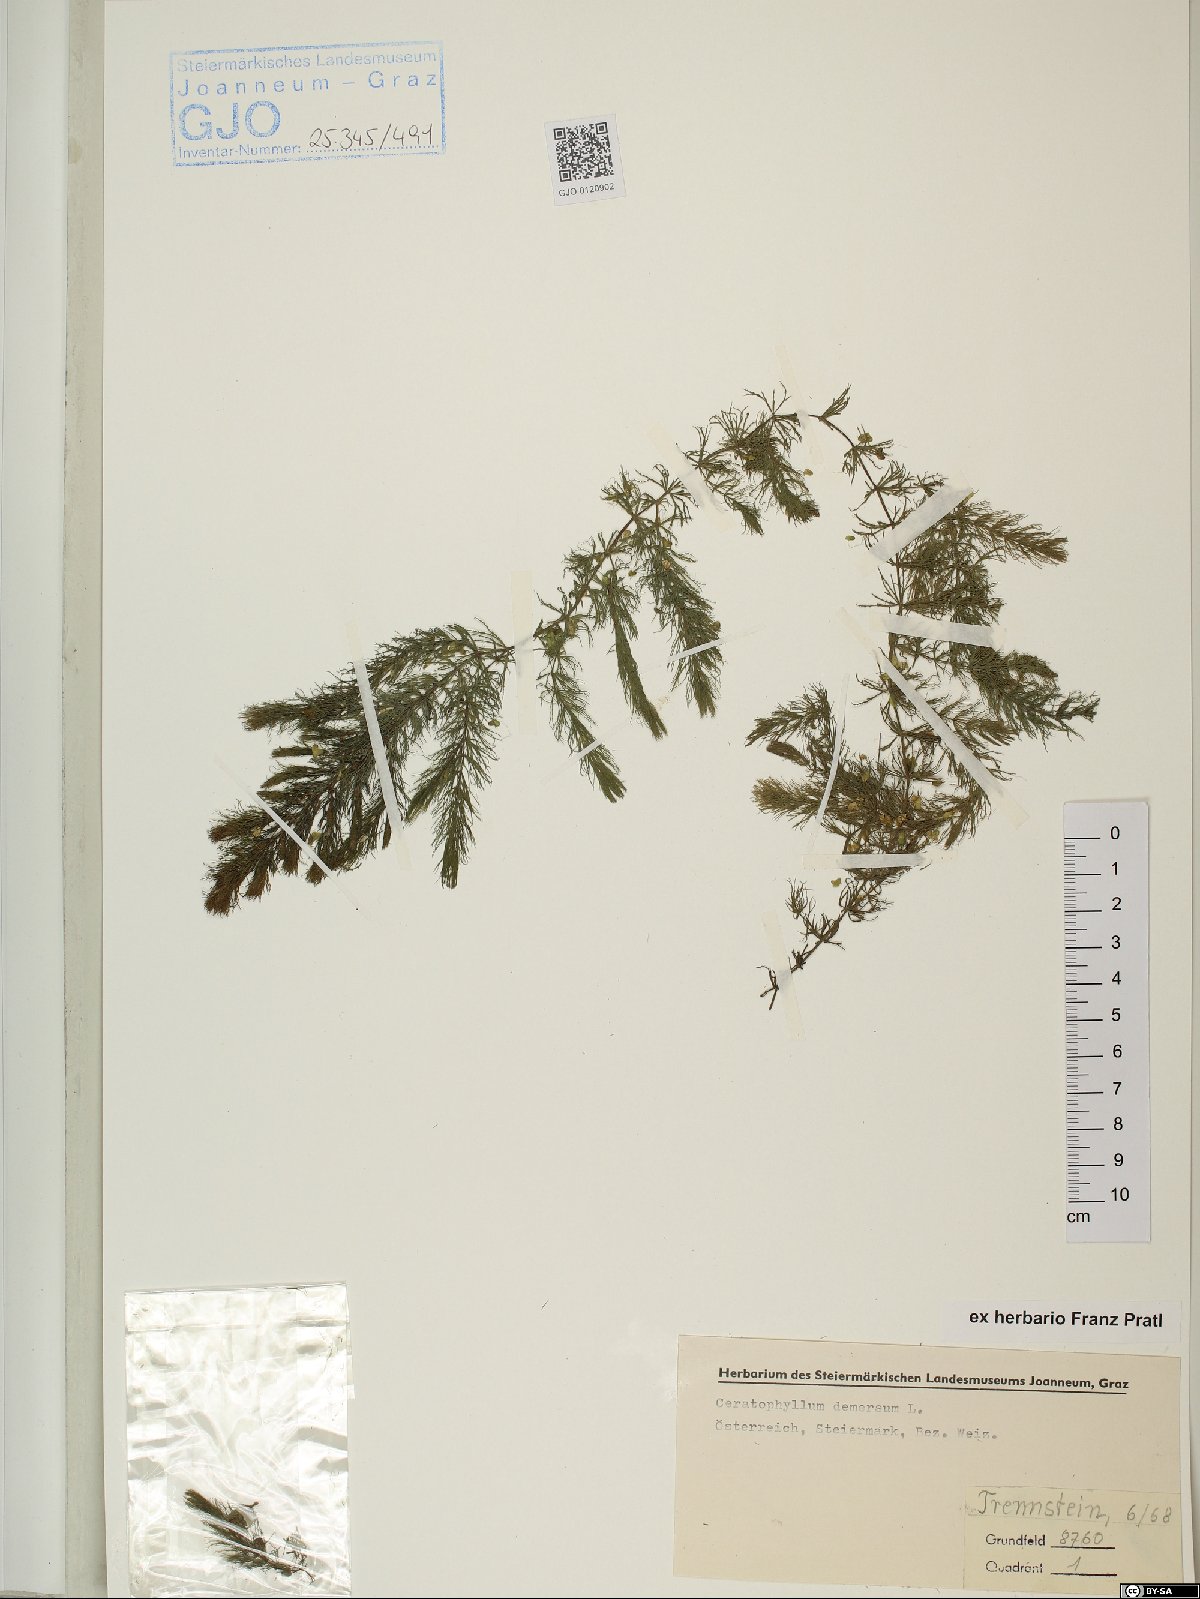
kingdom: Plantae
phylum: Tracheophyta
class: Magnoliopsida
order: Ceratophyllales
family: Ceratophyllaceae
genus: Ceratophyllum
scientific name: Ceratophyllum demersum
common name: Rigid hornwort
